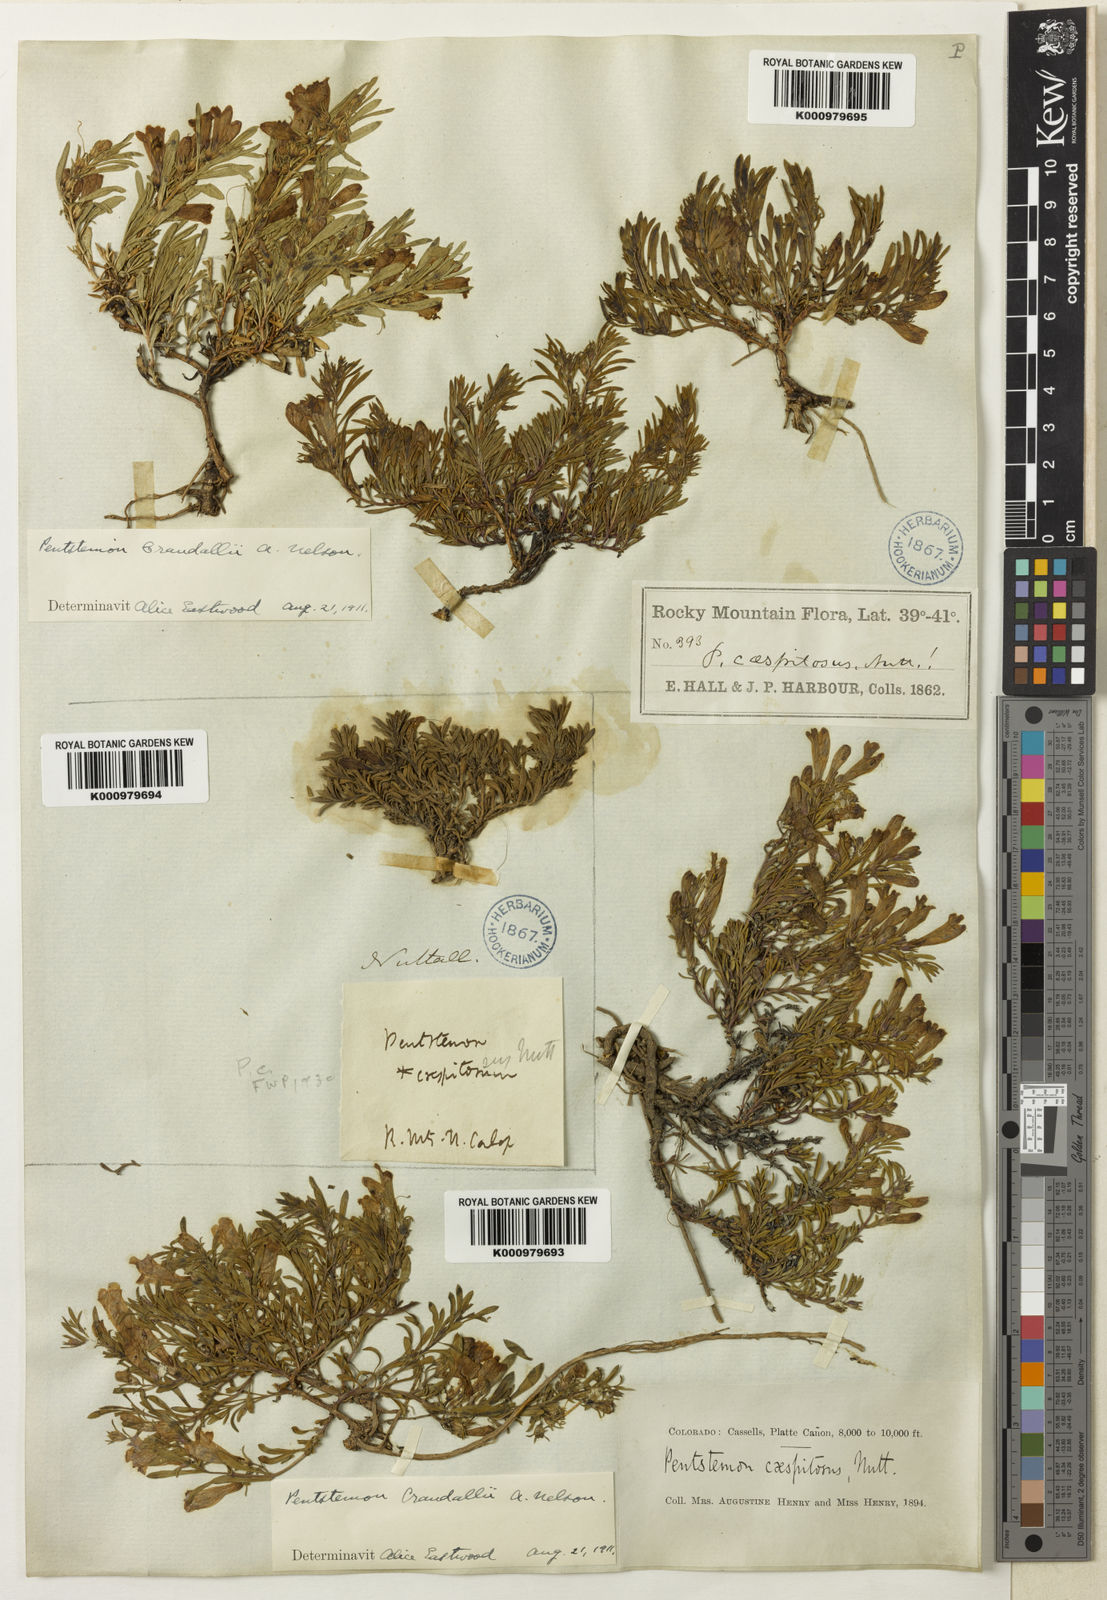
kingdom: Plantae
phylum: Tracheophyta
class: Magnoliopsida
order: Lamiales
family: Plantaginaceae
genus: Penstemon
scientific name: Penstemon caespitosus
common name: Mat penstemon
